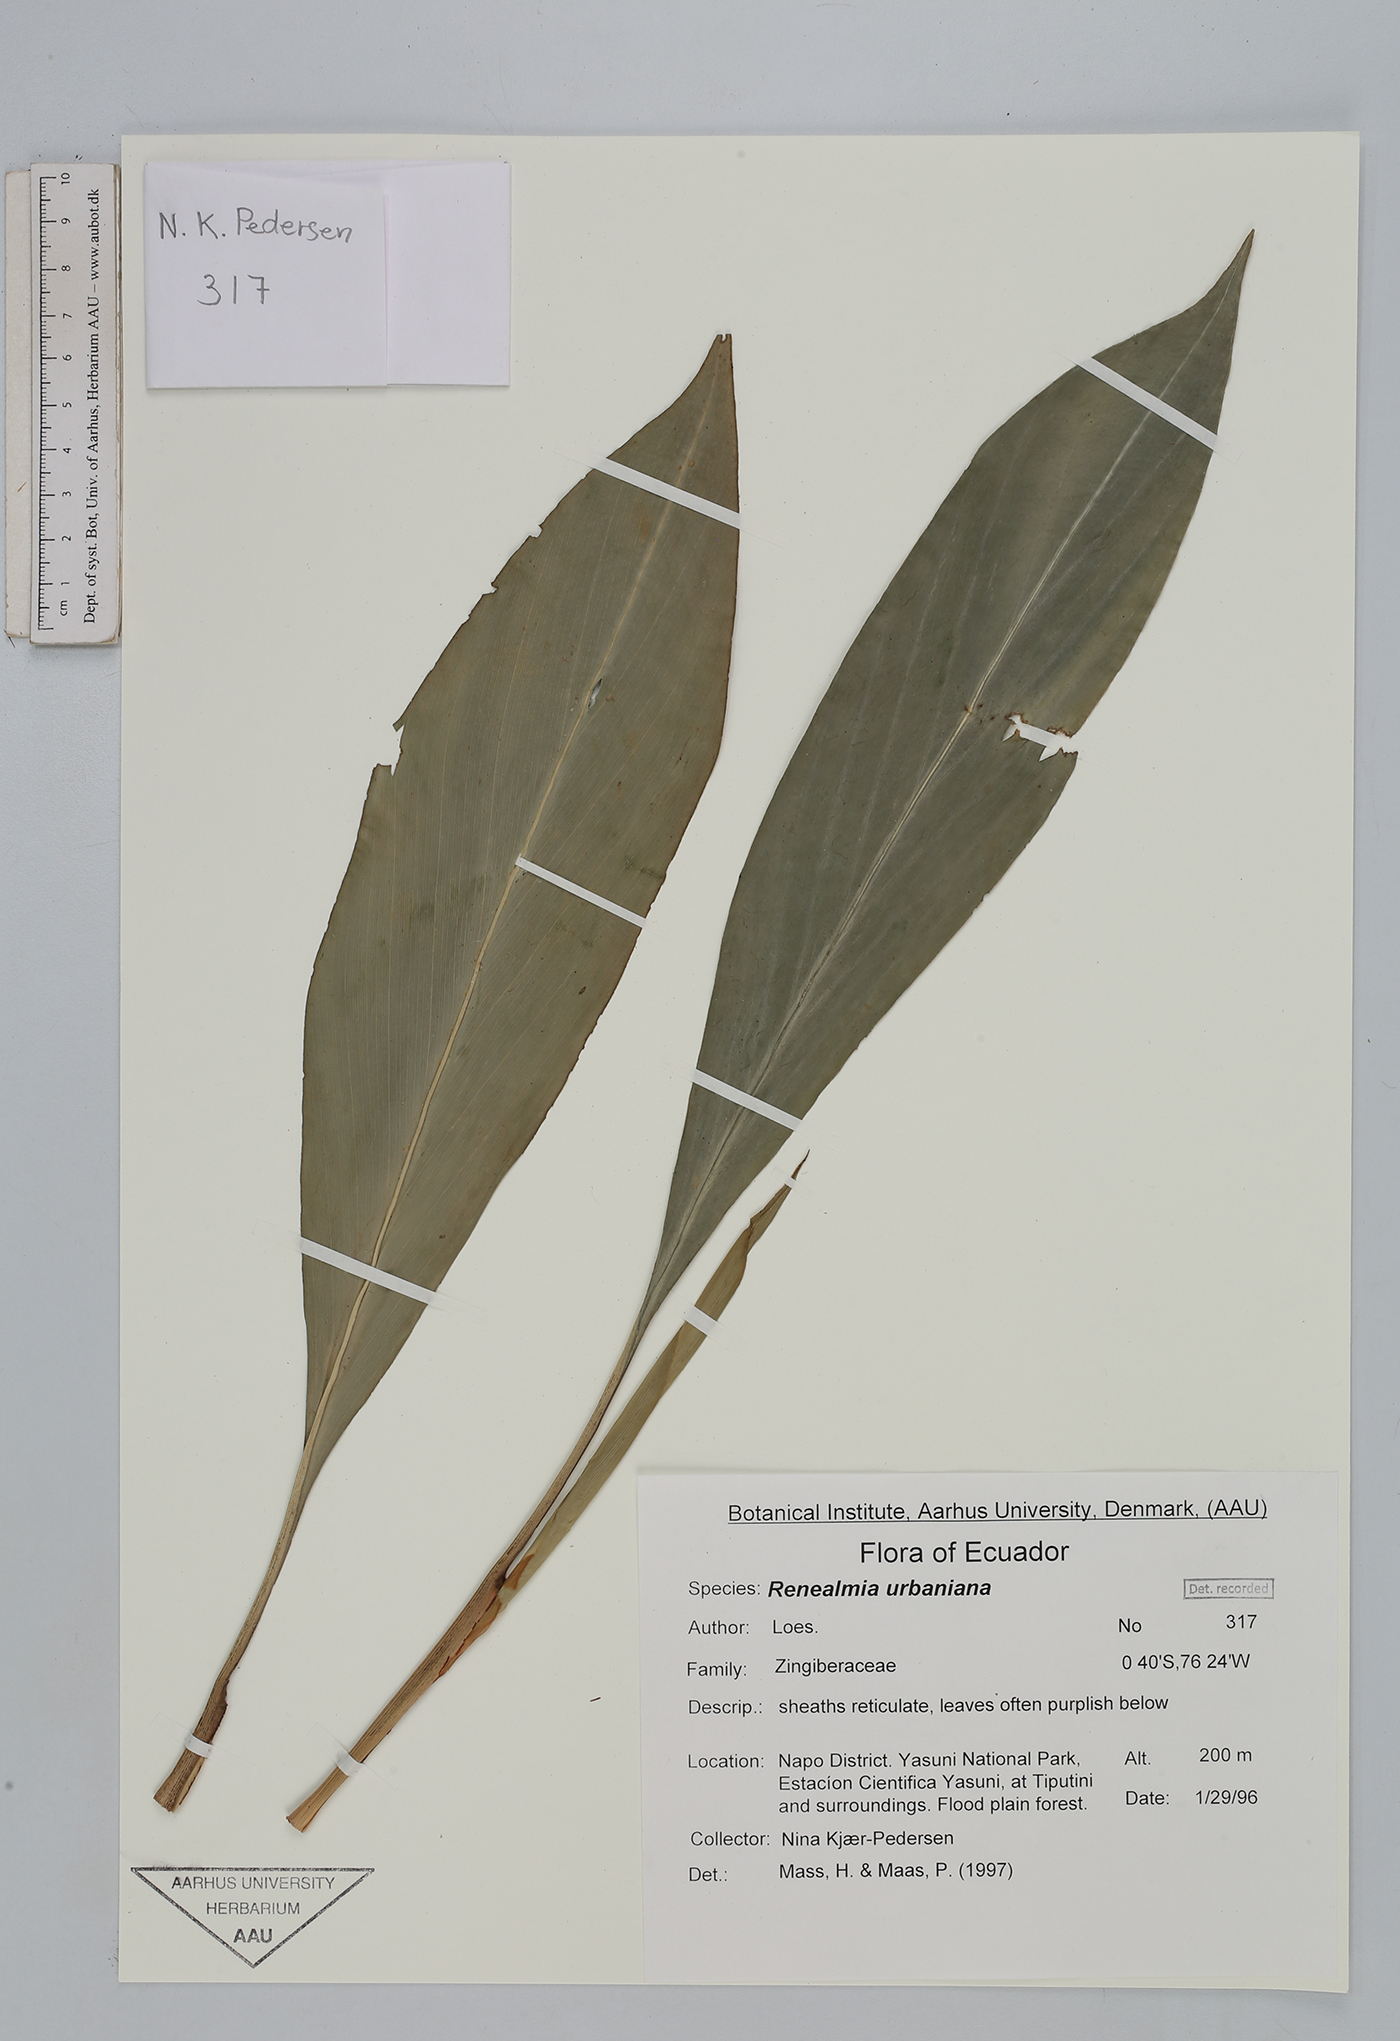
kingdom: Plantae
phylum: Tracheophyta
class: Liliopsida
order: Zingiberales
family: Zingiberaceae
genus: Renealmia
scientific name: Renealmia urbaniana
